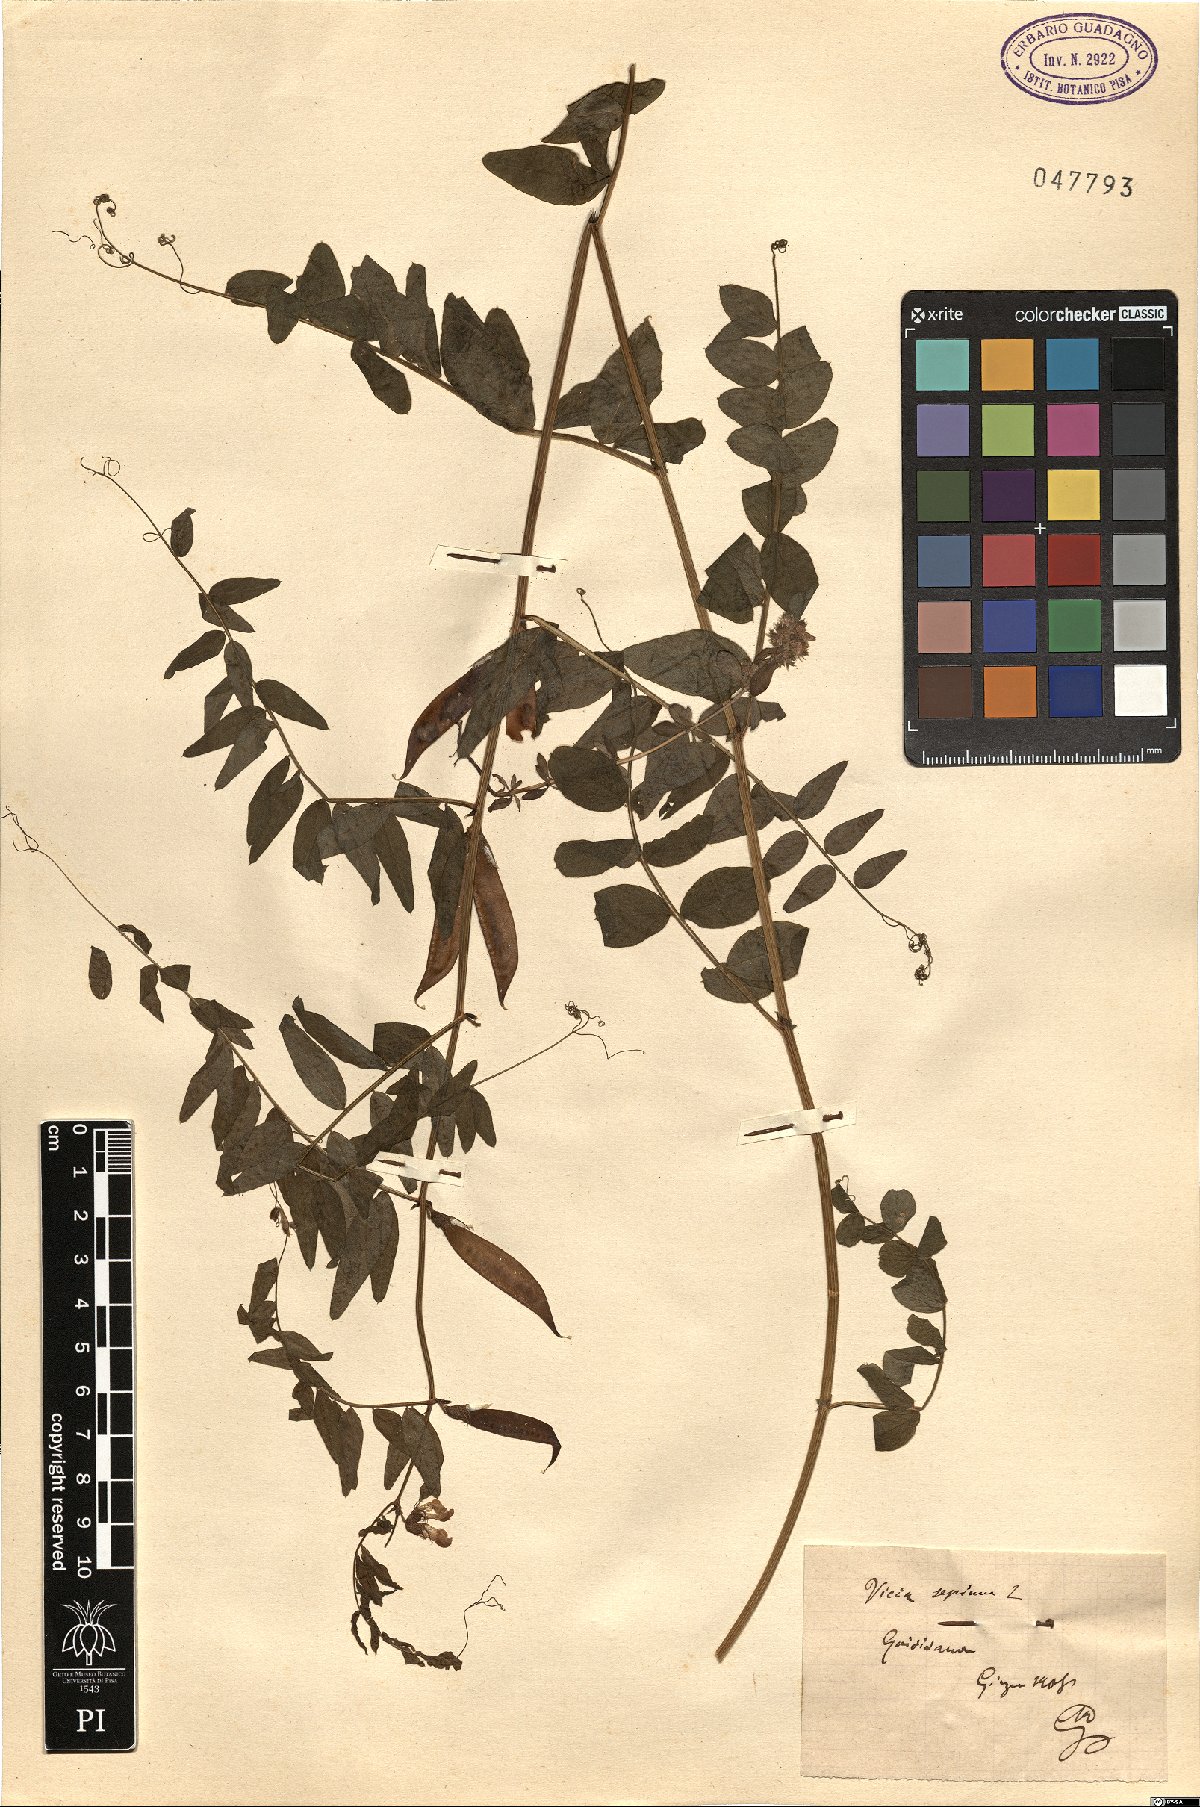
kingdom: Plantae
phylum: Tracheophyta
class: Magnoliopsida
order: Fabales
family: Fabaceae
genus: Vicia
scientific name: Vicia sepium
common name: Bush vetch
